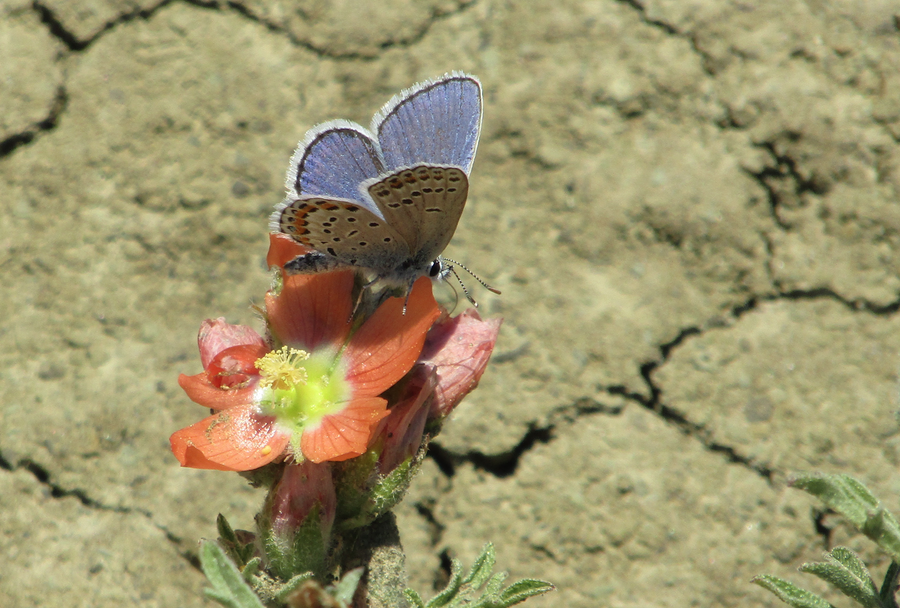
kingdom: Animalia
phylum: Arthropoda
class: Insecta
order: Lepidoptera
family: Lycaenidae
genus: Lycaeides
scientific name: Lycaeides melissa
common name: Melissa Blue
